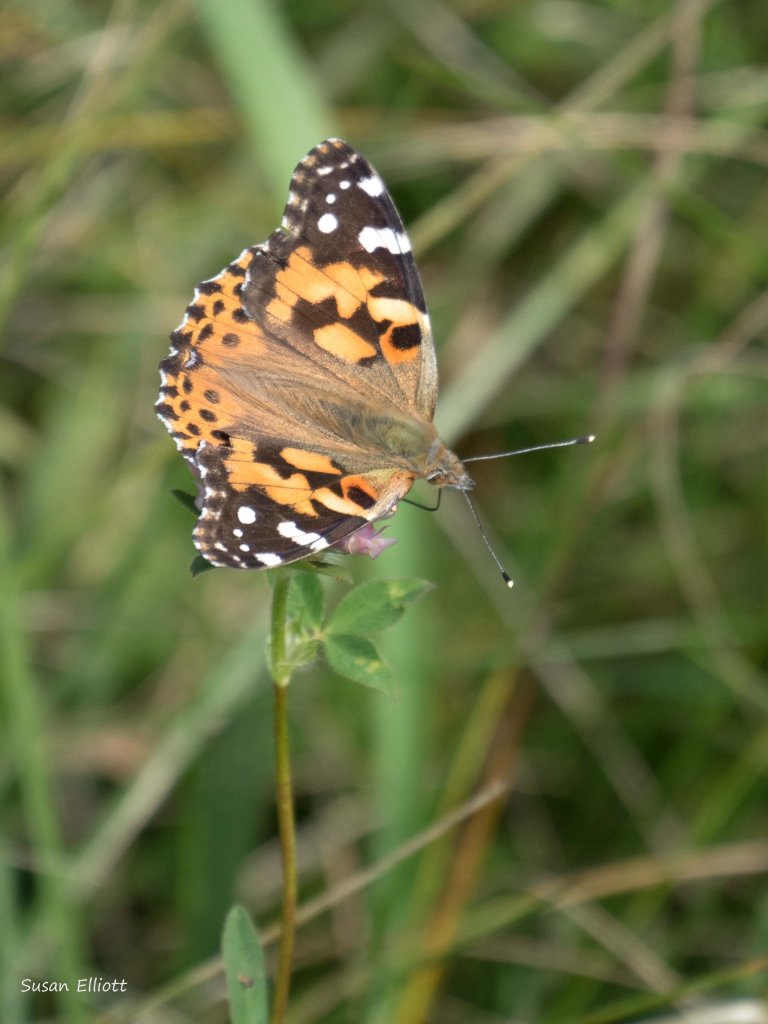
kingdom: Animalia
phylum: Arthropoda
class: Insecta
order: Lepidoptera
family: Nymphalidae
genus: Vanessa
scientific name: Vanessa cardui
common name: Painted Lady
